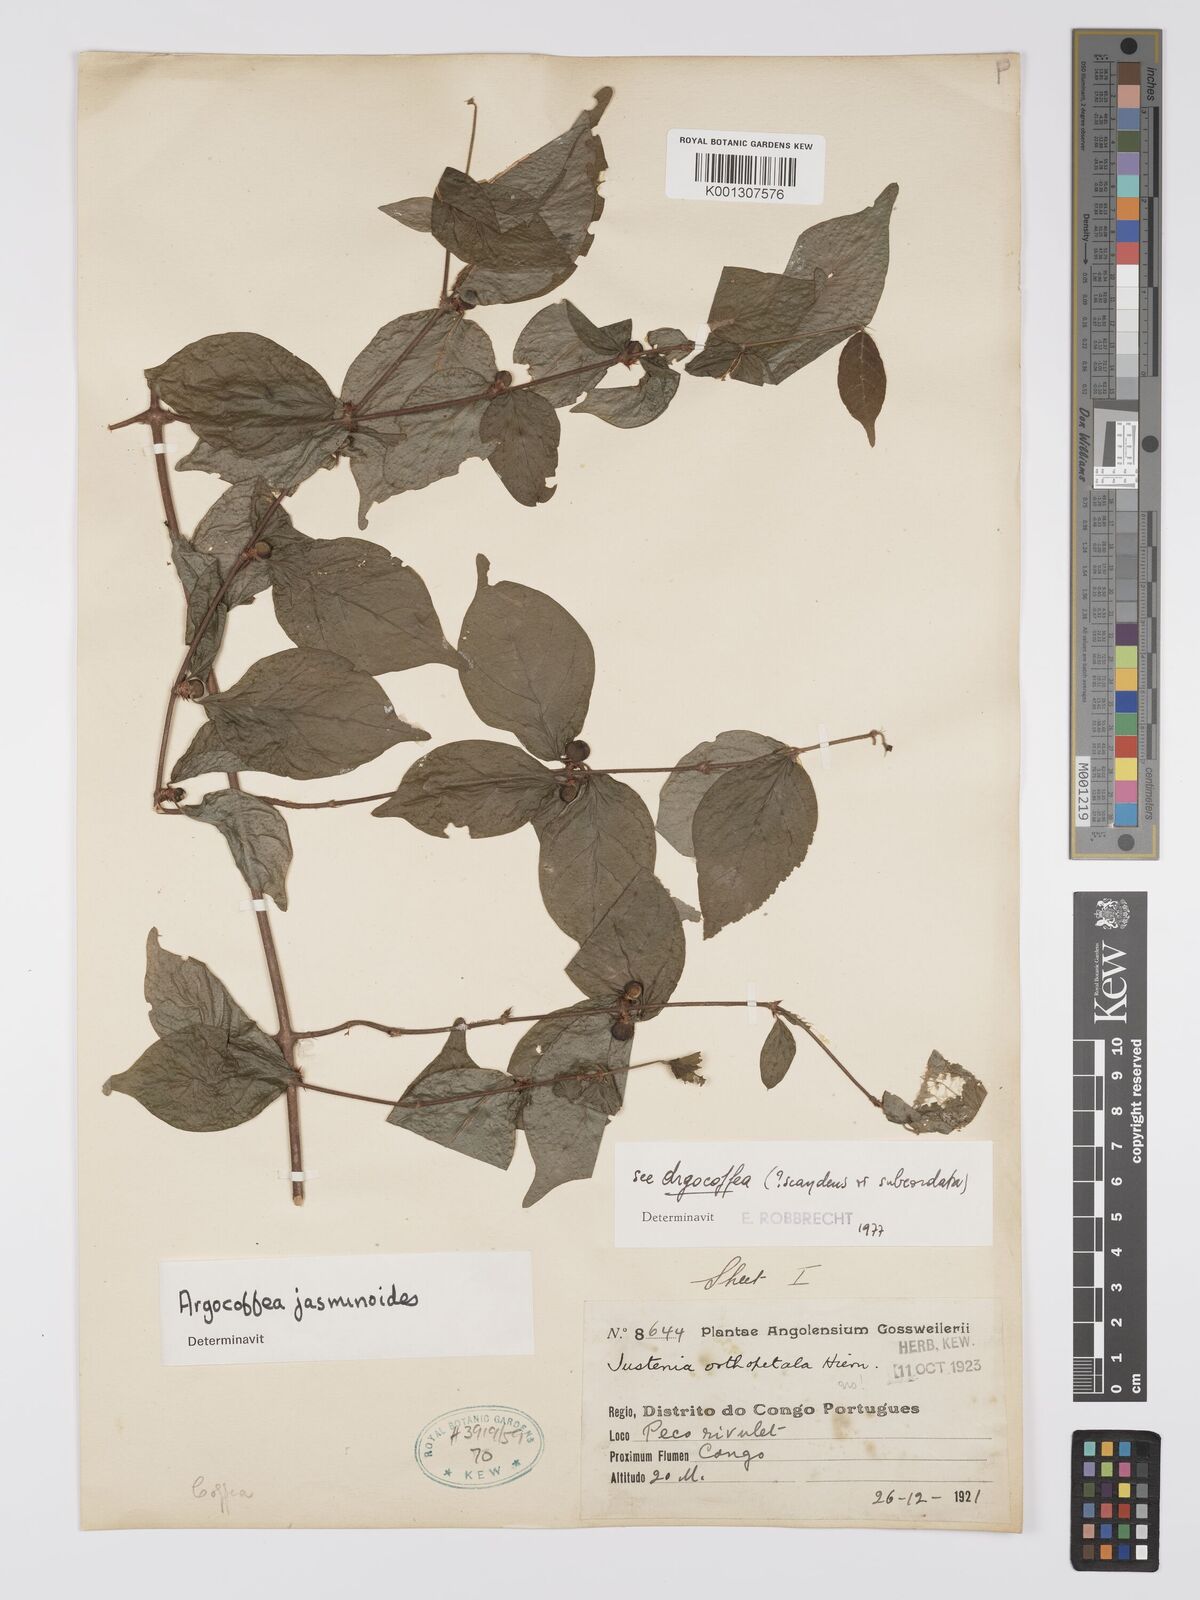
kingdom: Plantae
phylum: Tracheophyta
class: Magnoliopsida
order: Gentianales
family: Rubiaceae
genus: Argocoffeopsis
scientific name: Argocoffeopsis eketensis
